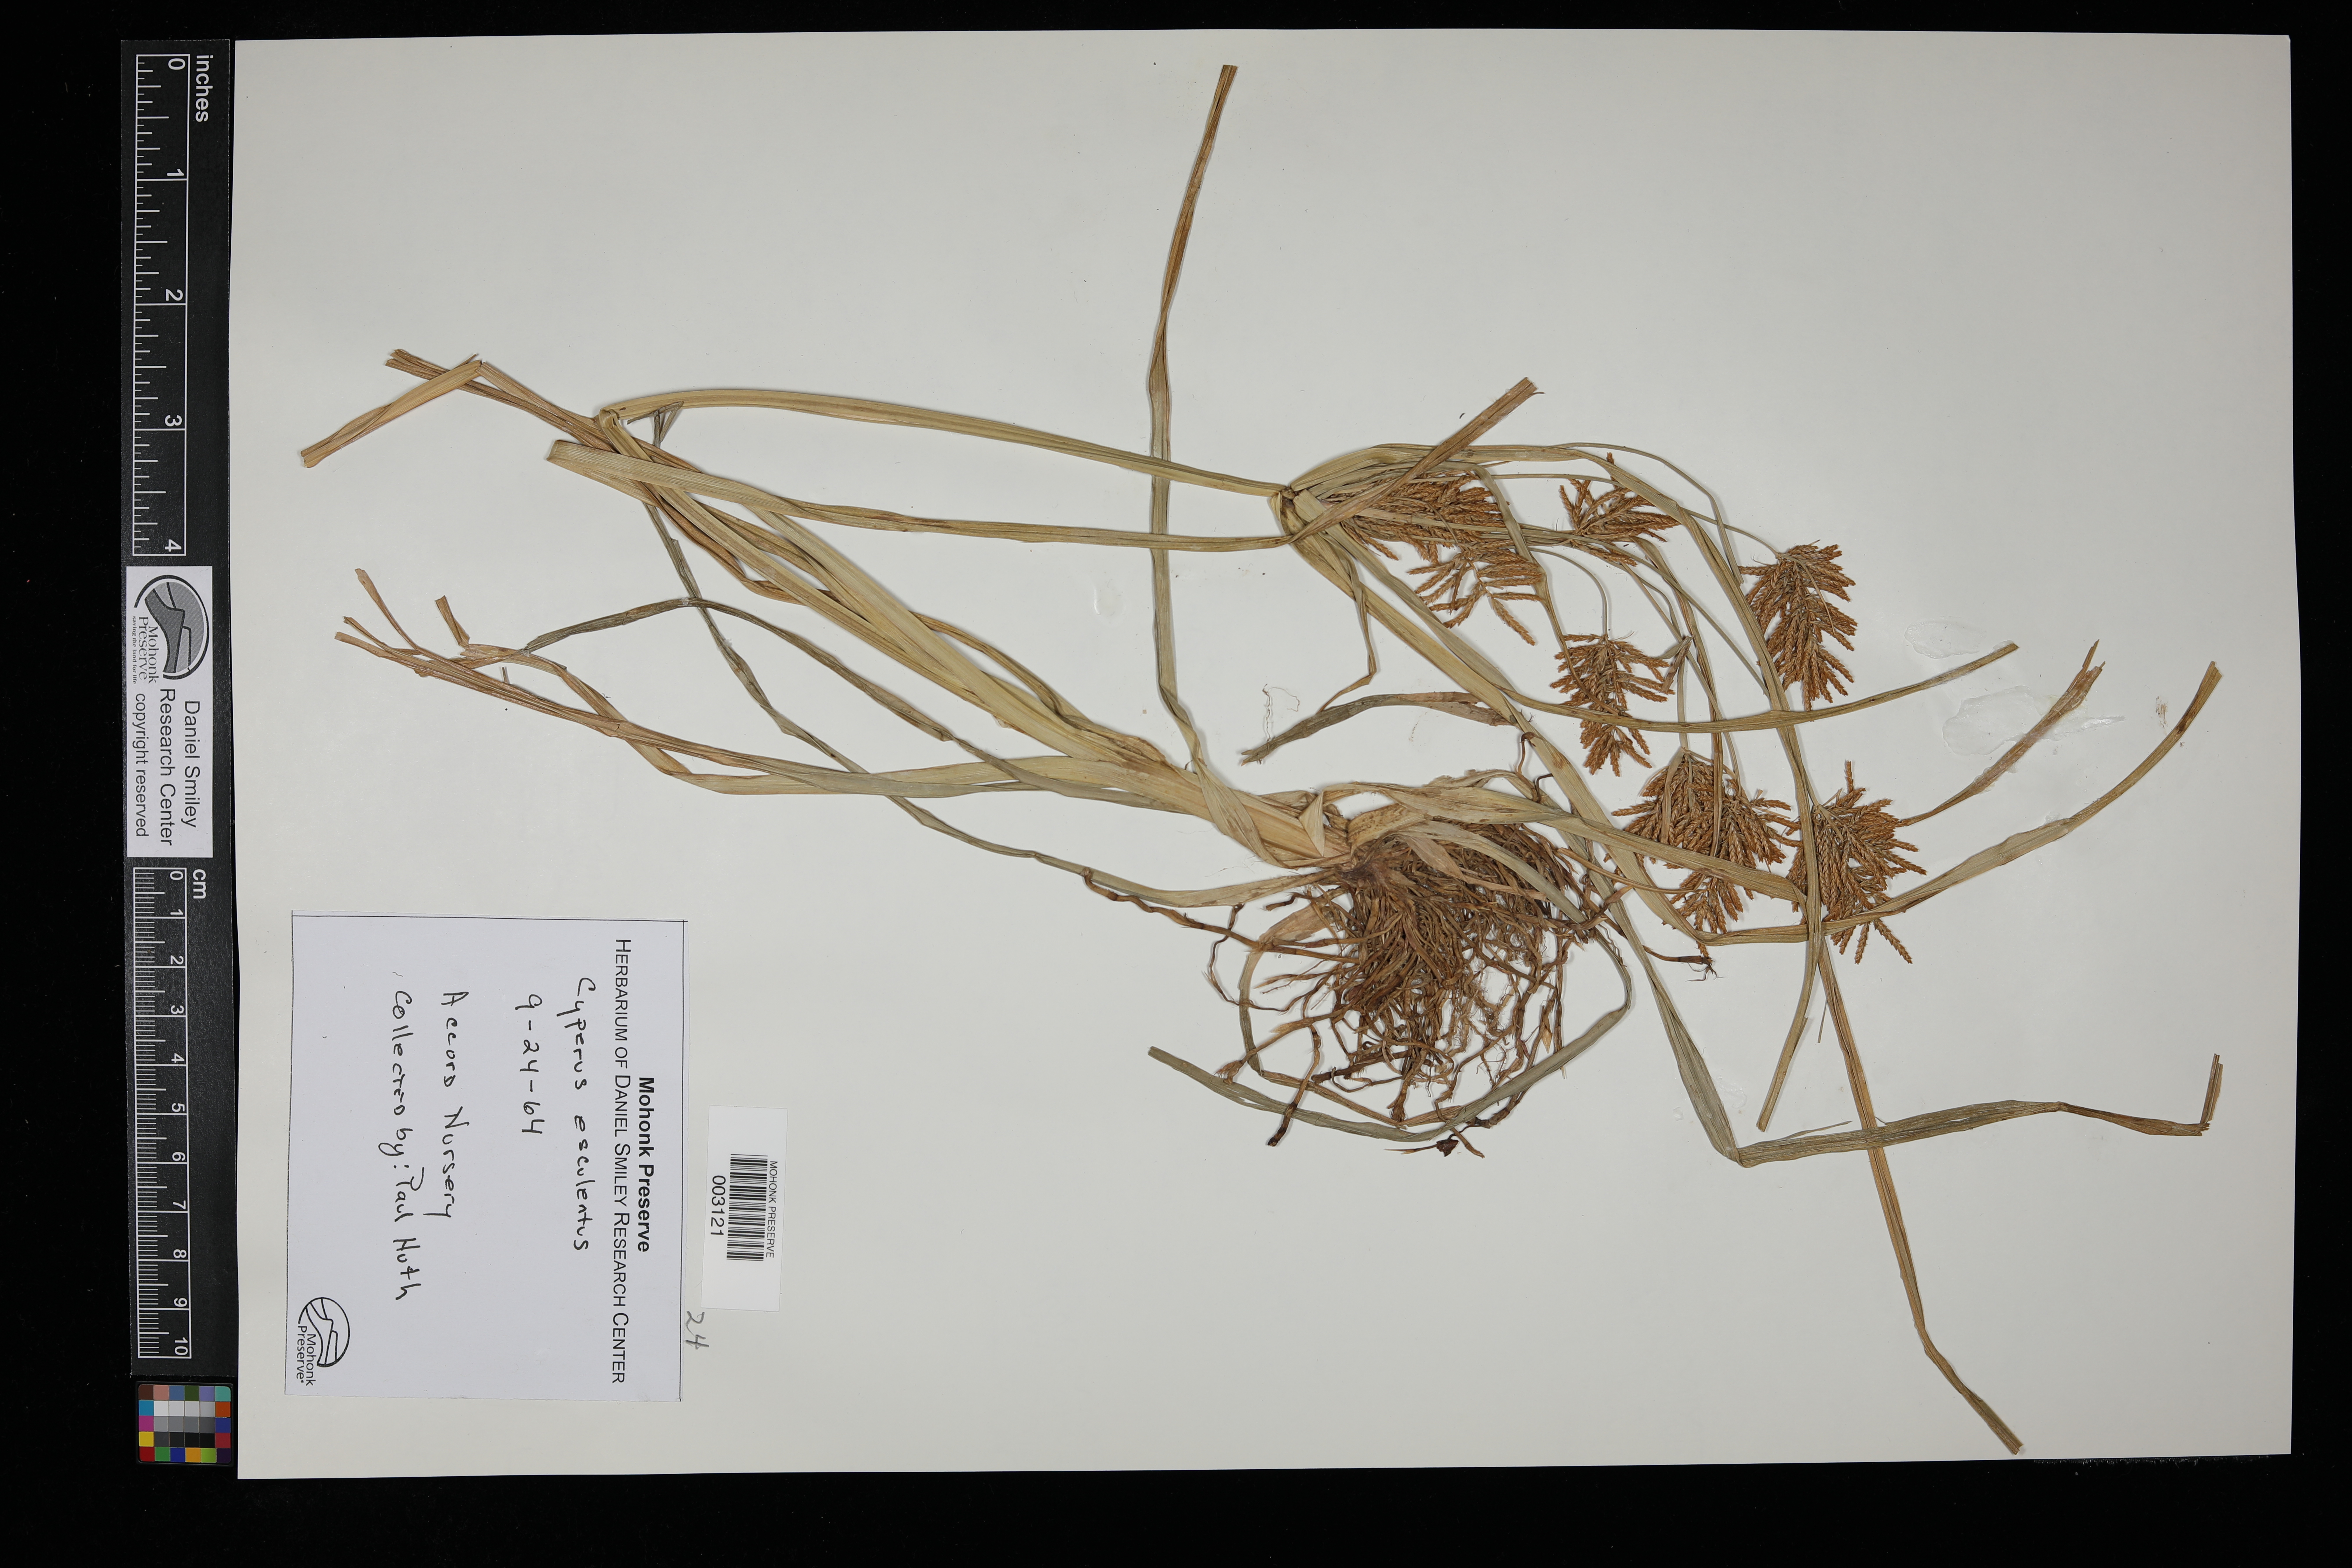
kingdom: Plantae
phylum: Tracheophyta
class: Liliopsida
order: Poales
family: Cyperaceae
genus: Cyperus
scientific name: Cyperus esculentus
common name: Yellow nutsedge
